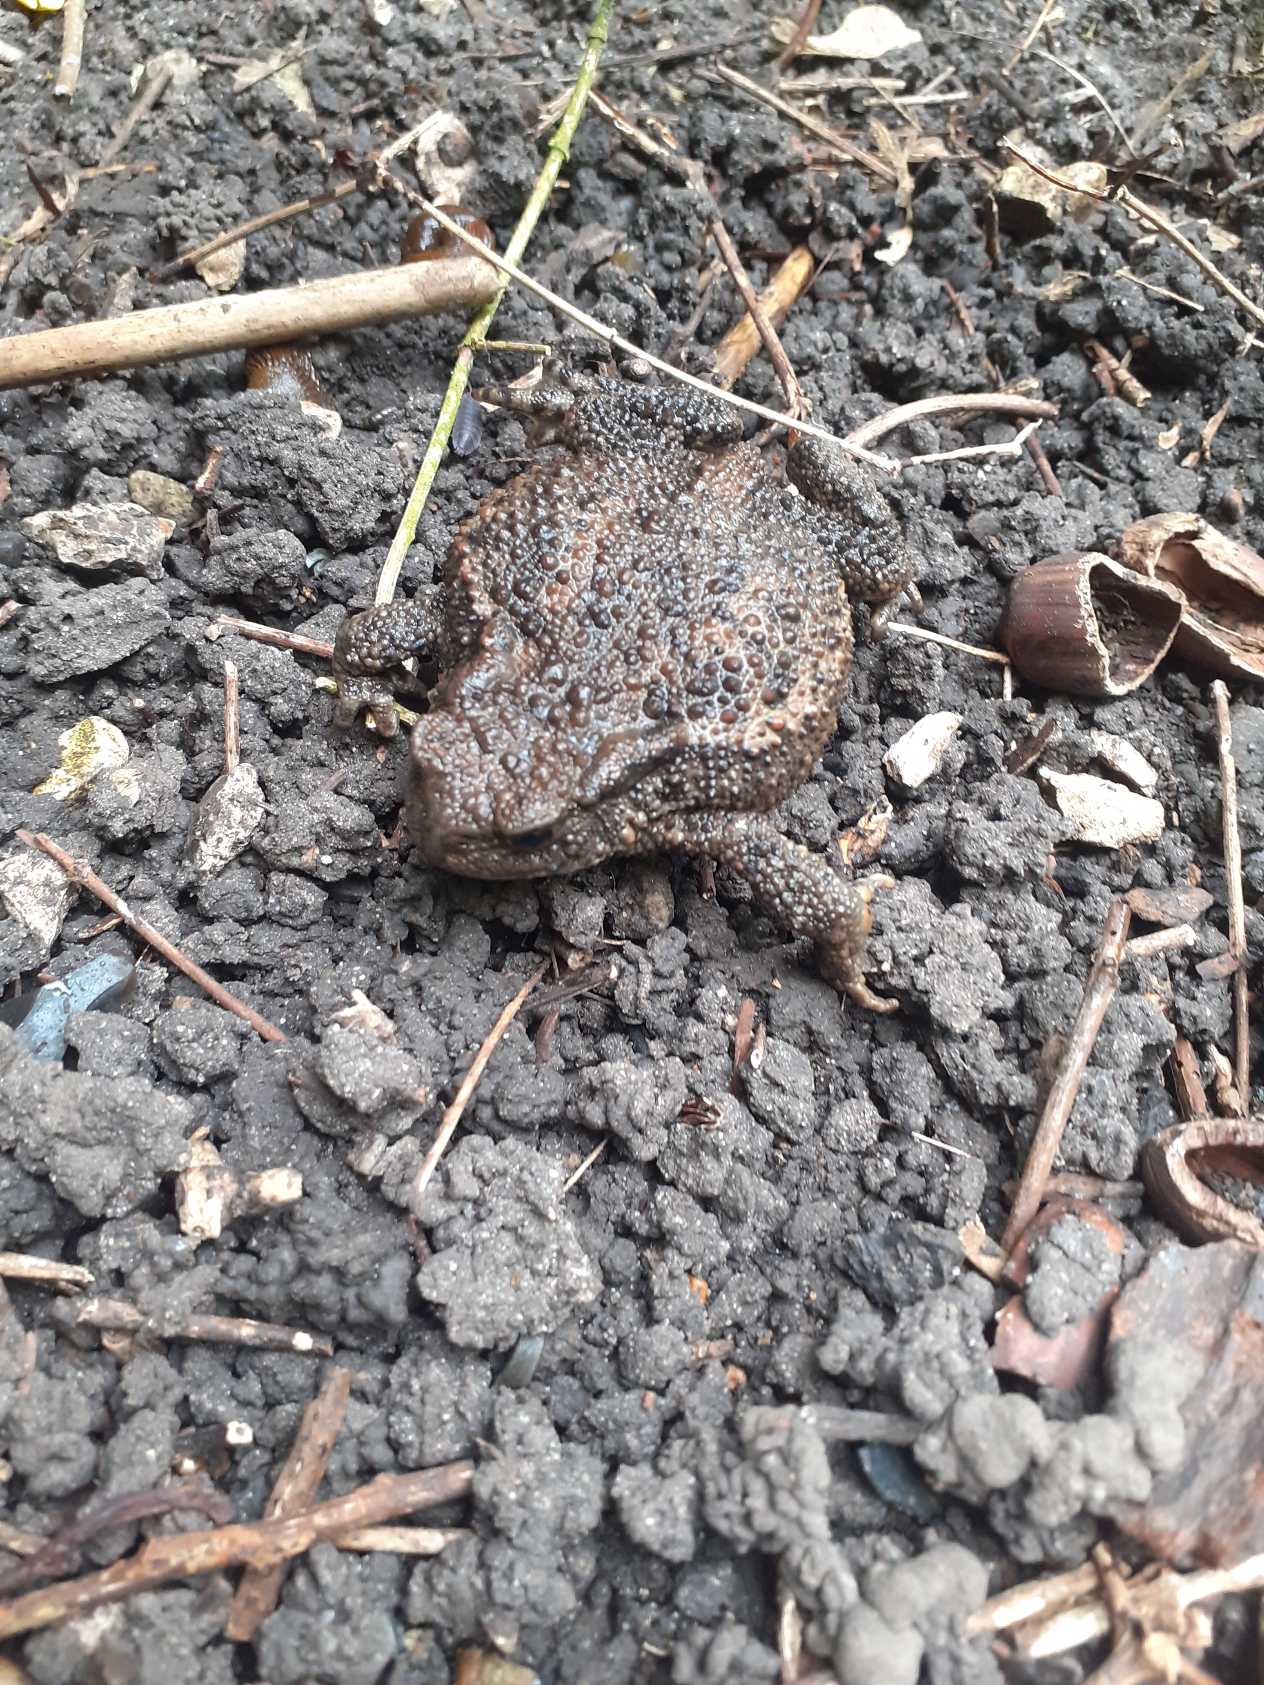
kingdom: Animalia
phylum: Chordata
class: Amphibia
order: Anura
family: Bufonidae
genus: Bufo
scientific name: Bufo bufo
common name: Skrubtudse
